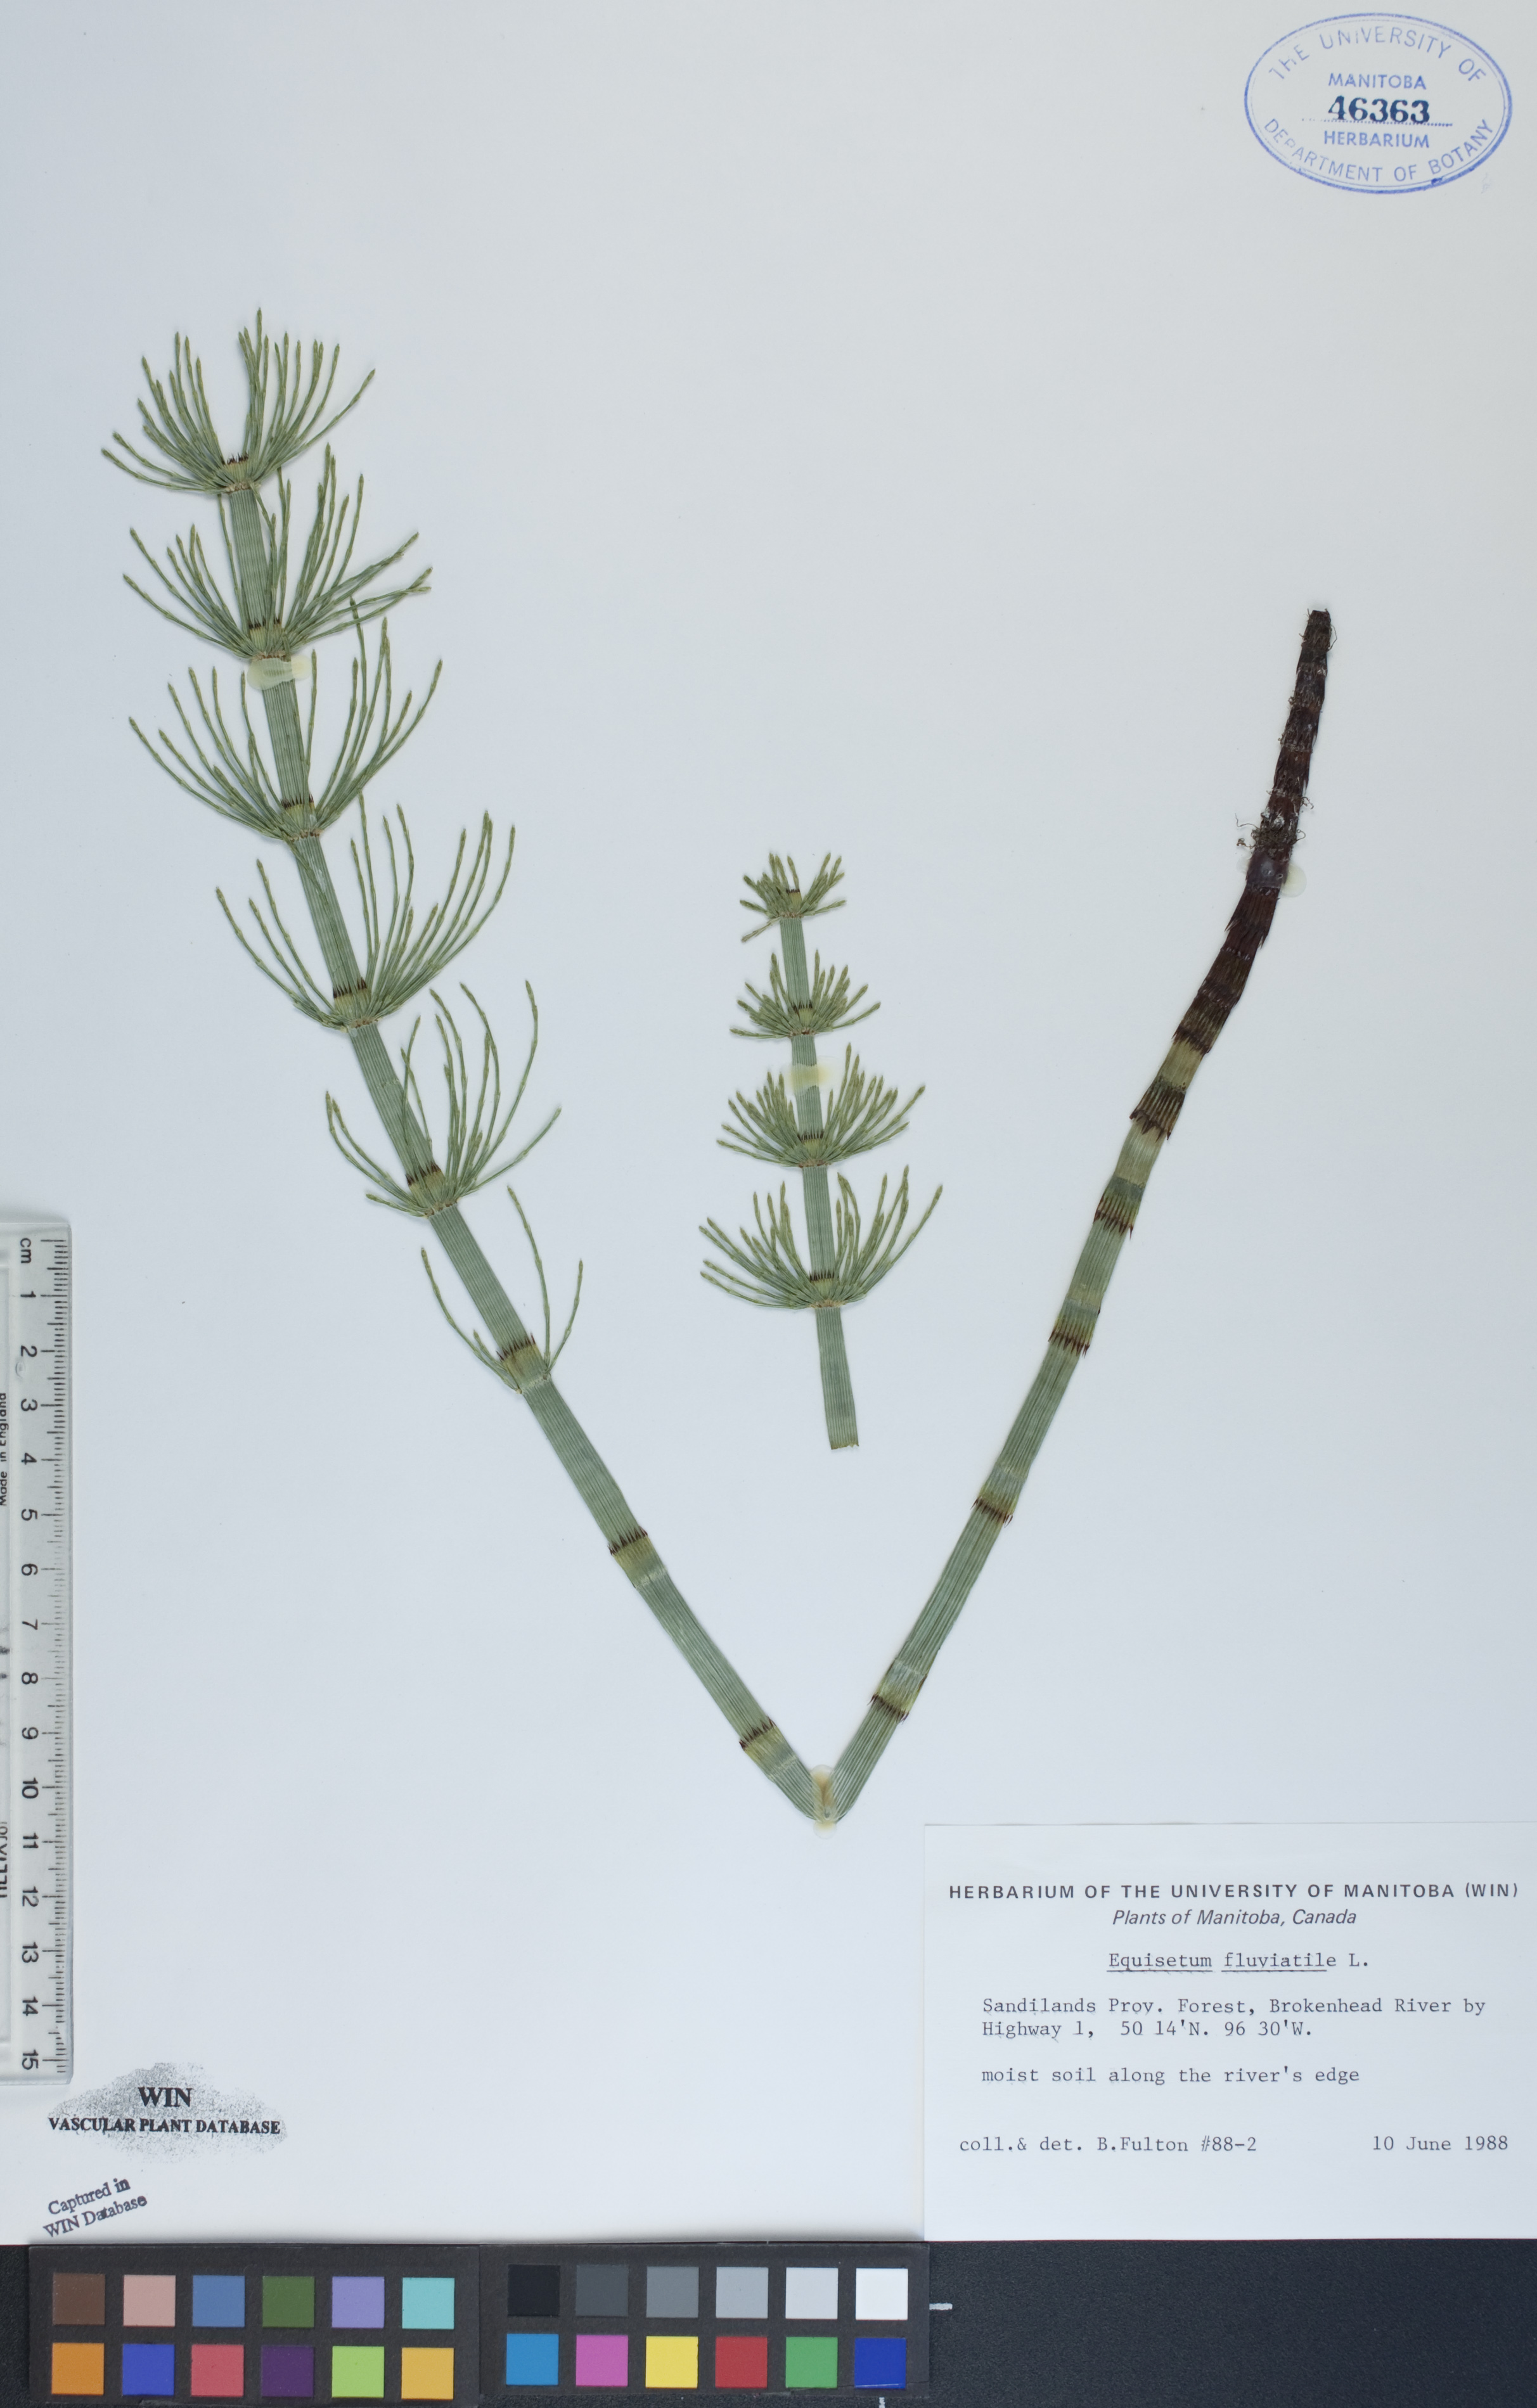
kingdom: Plantae
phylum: Tracheophyta
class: Polypodiopsida
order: Equisetales
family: Equisetaceae
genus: Equisetum
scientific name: Equisetum fluviatile
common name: Water horsetail
